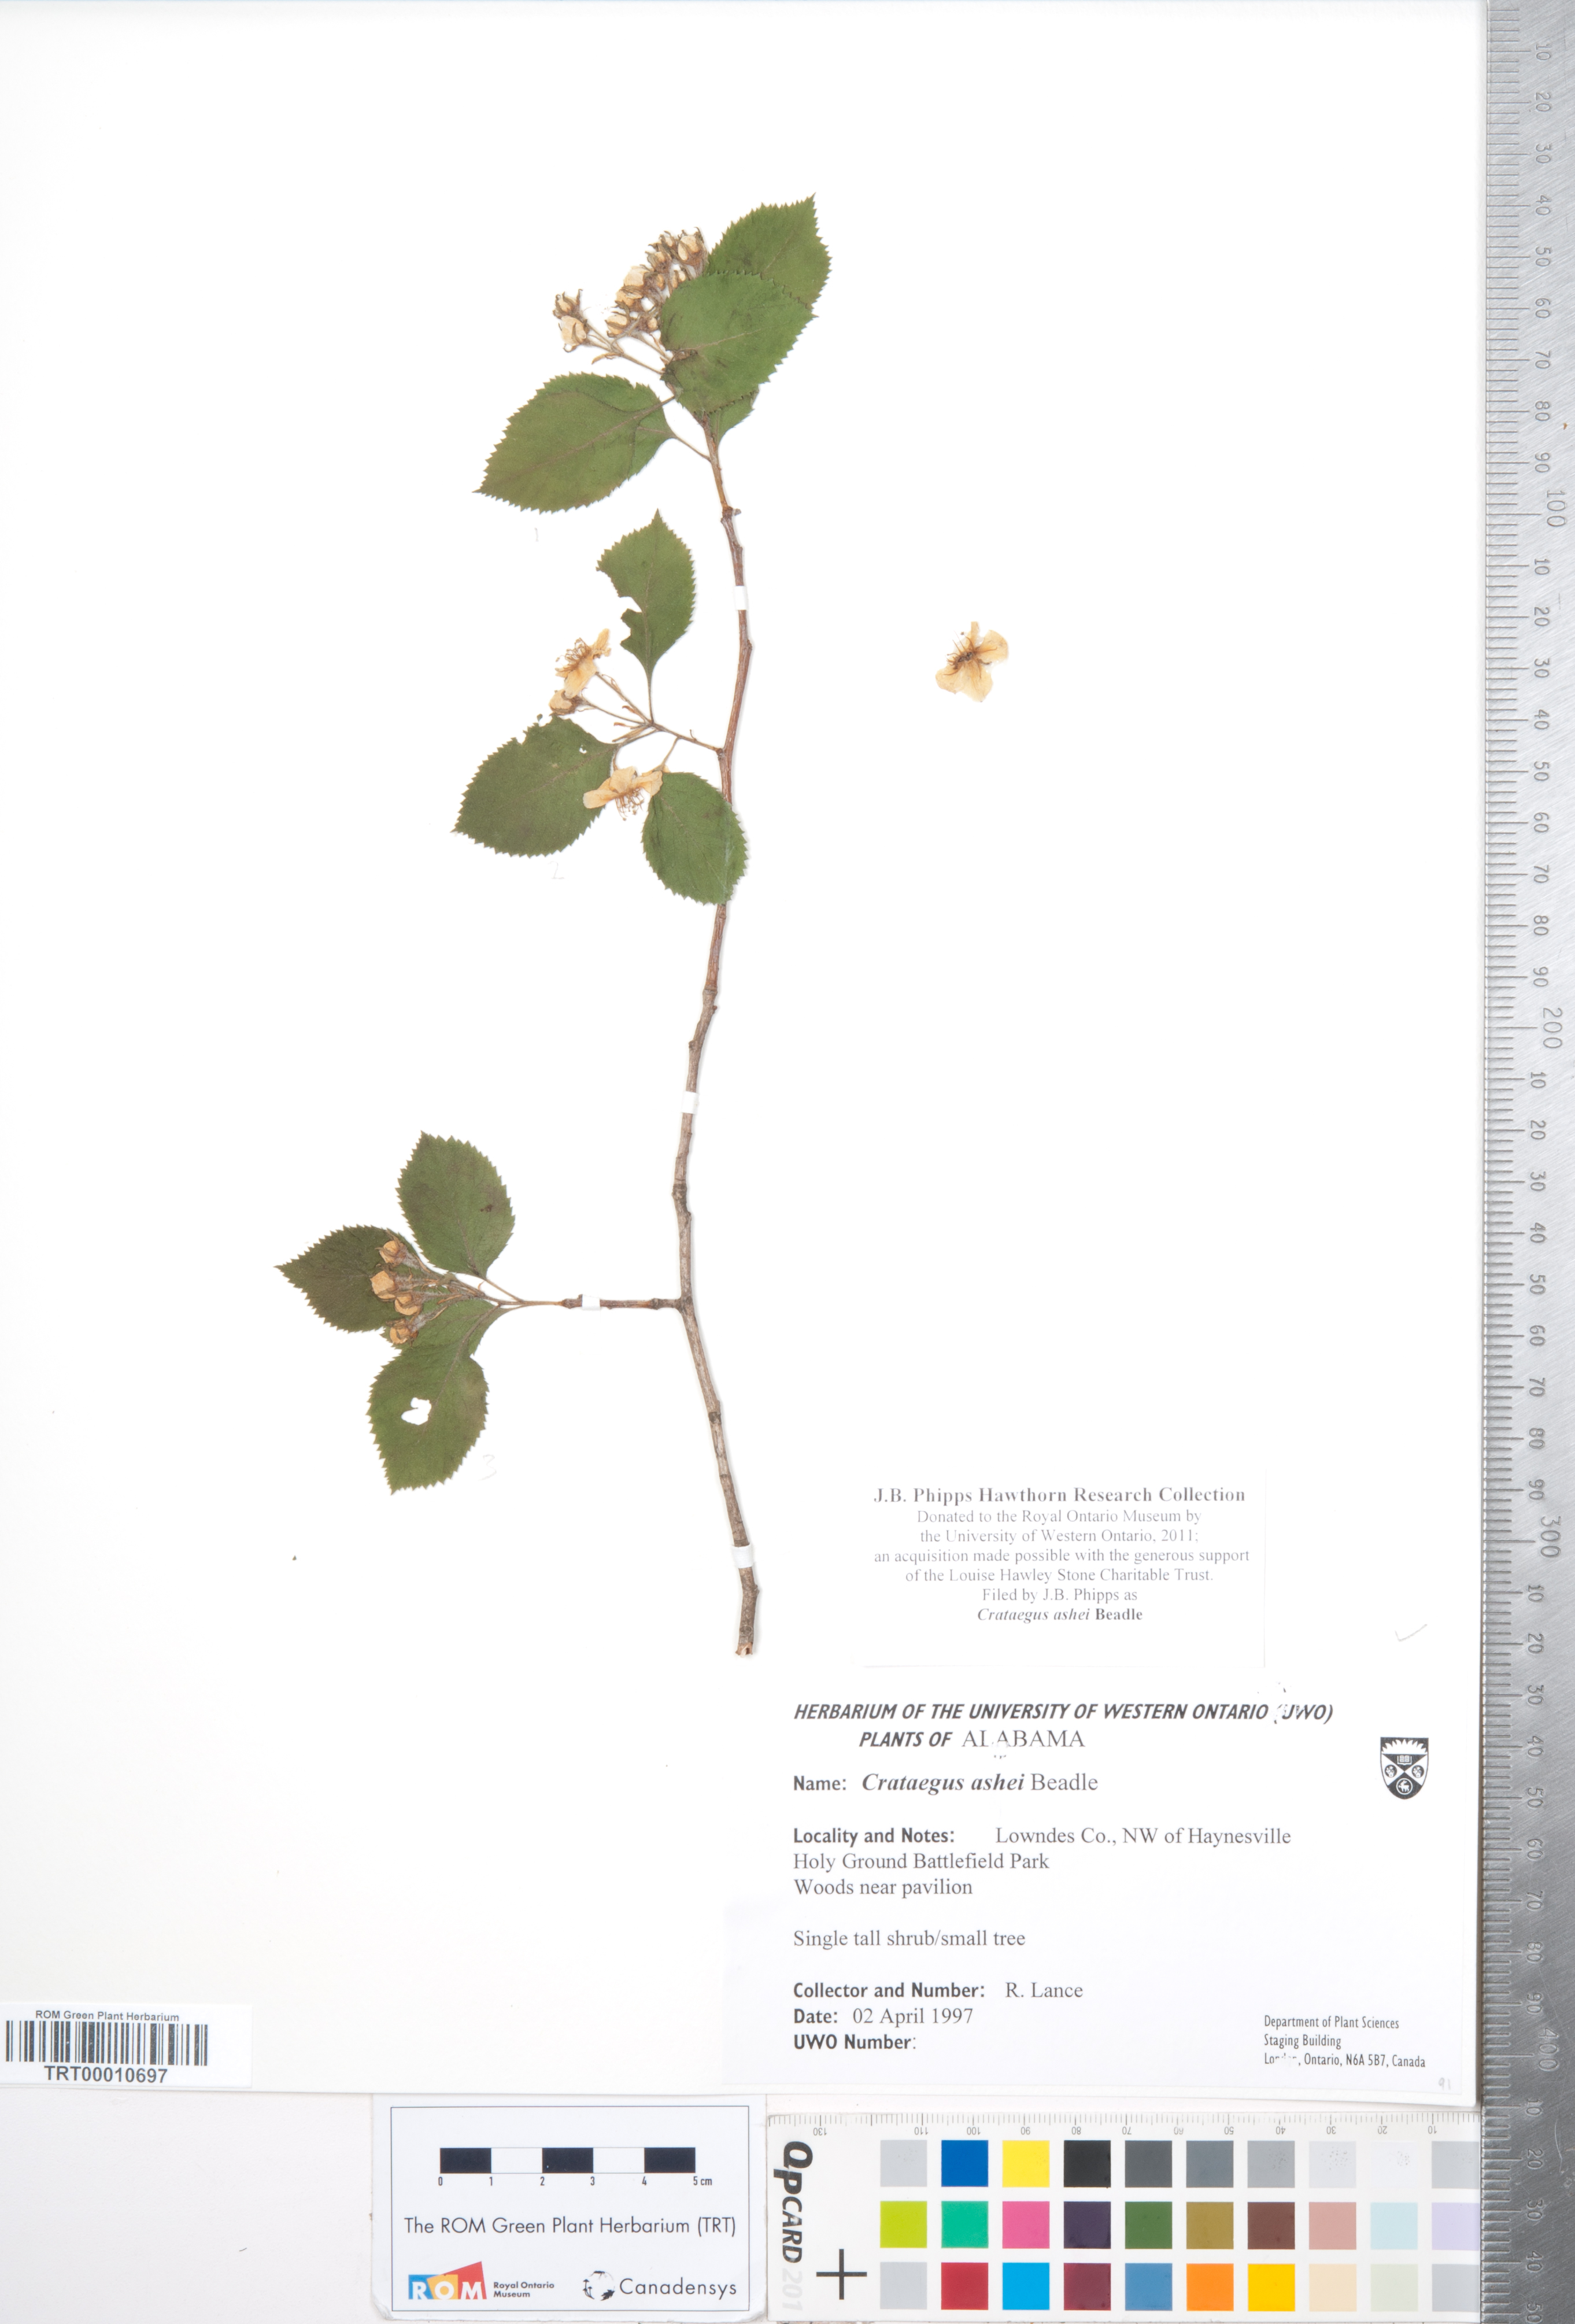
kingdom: Plantae
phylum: Tracheophyta
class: Magnoliopsida
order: Rosales
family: Rosaceae
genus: Crataegus
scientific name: Crataegus ashei
